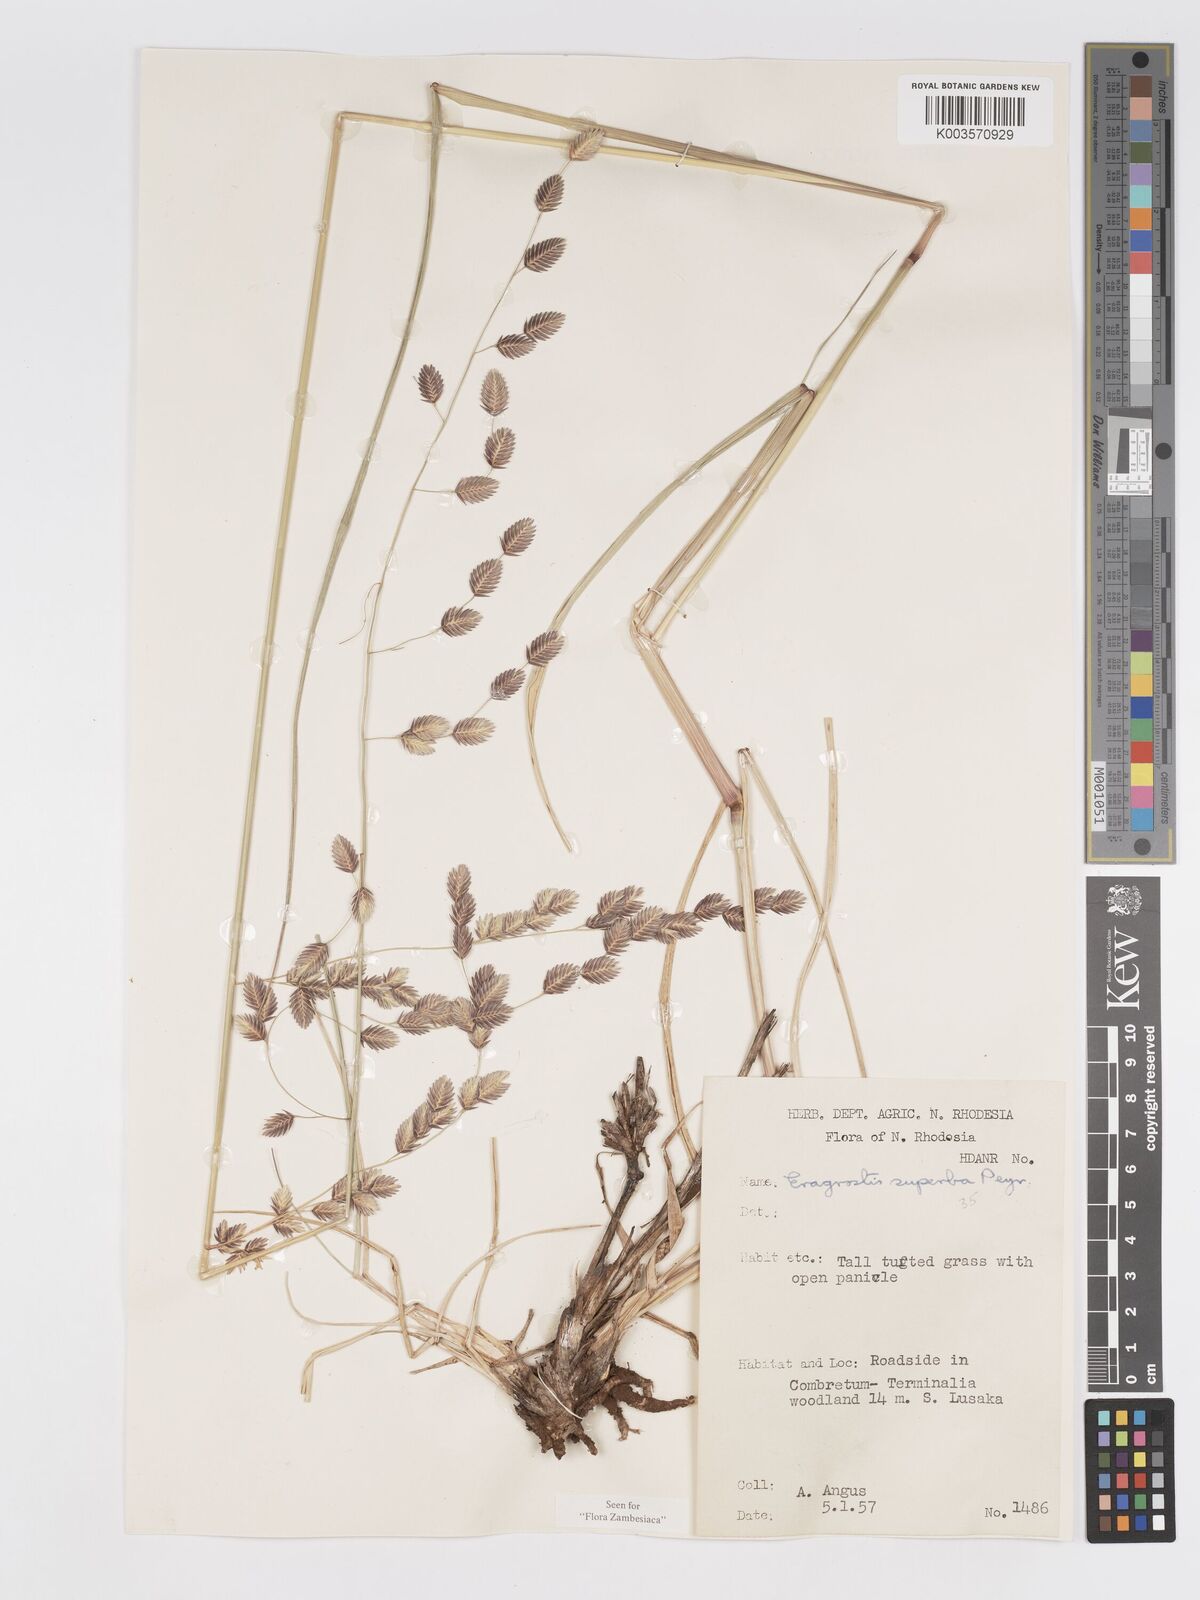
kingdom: Plantae
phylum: Tracheophyta
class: Liliopsida
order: Poales
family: Poaceae
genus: Eragrostis
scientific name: Eragrostis superba
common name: Wilman lovegrass
